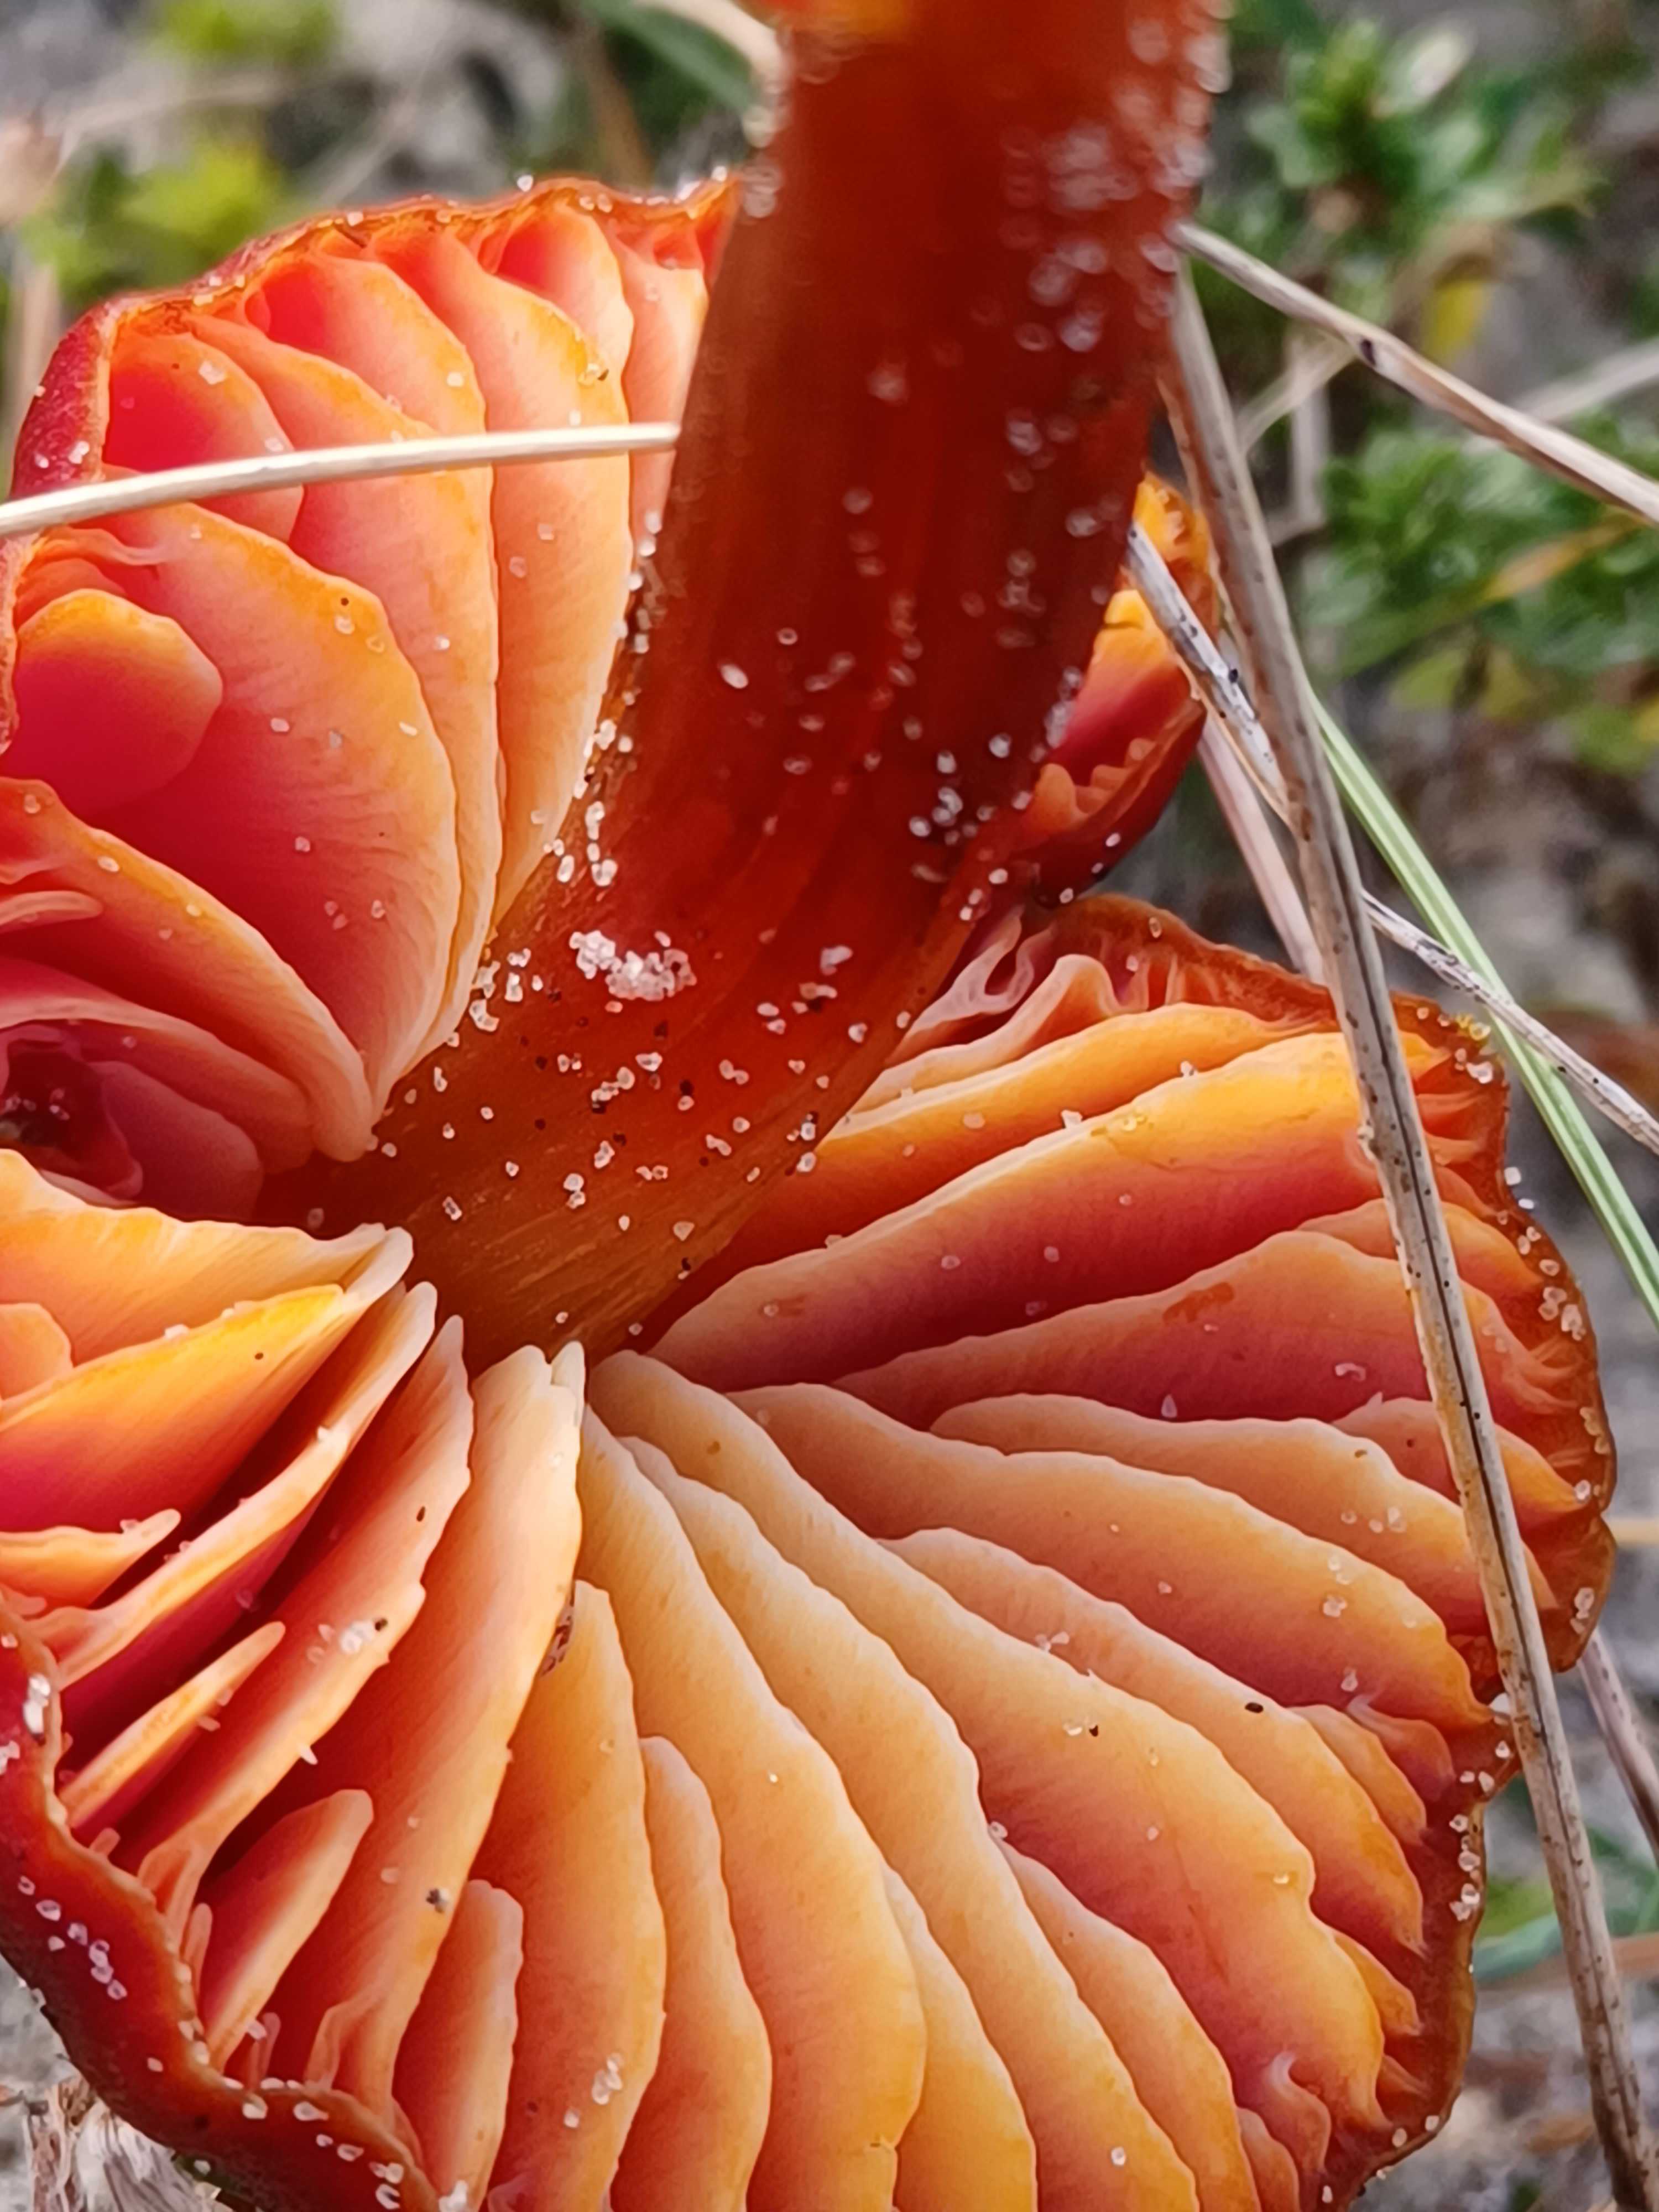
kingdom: Fungi
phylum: Basidiomycota
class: Agaricomycetes
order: Agaricales
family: Hygrophoraceae
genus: Hygrocybe
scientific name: Hygrocybe conicoides
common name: klit-vokshat
